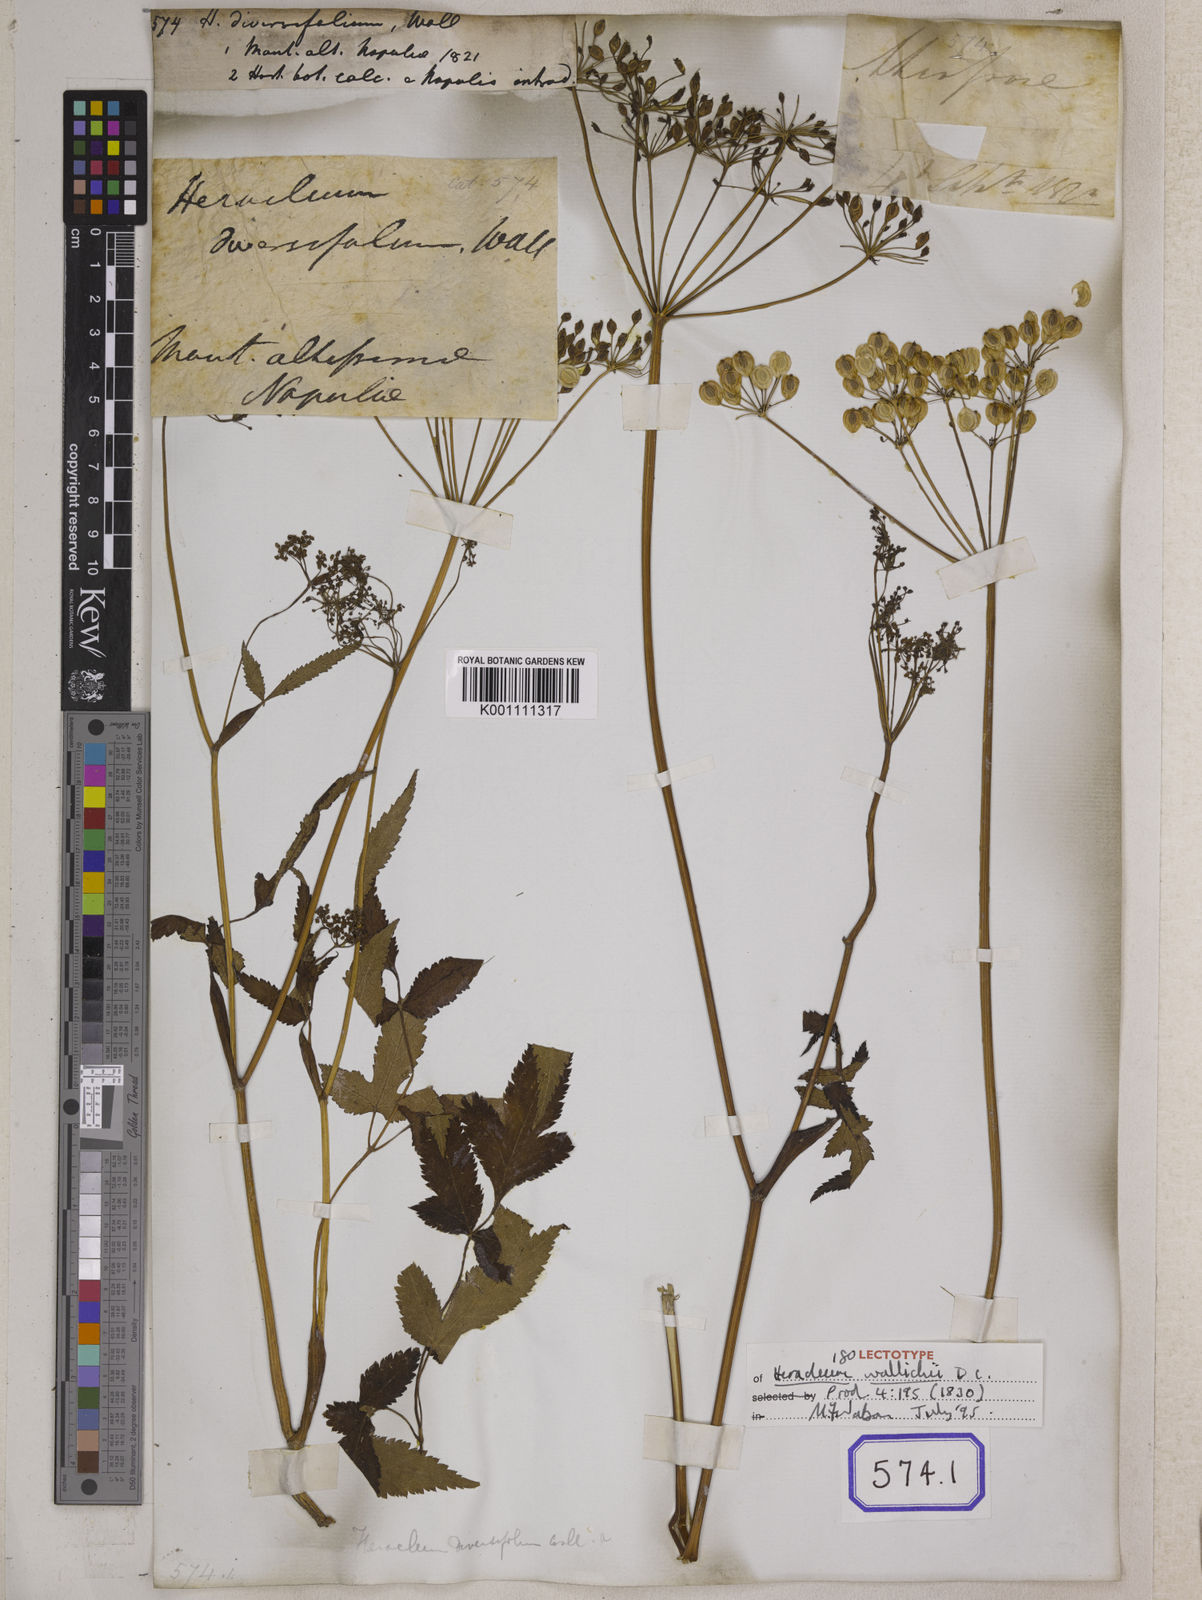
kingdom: Plantae
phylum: Tracheophyta
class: Magnoliopsida
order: Apiales
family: Apiaceae
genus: Tetrataenium
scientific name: Tetrataenium wallichii
